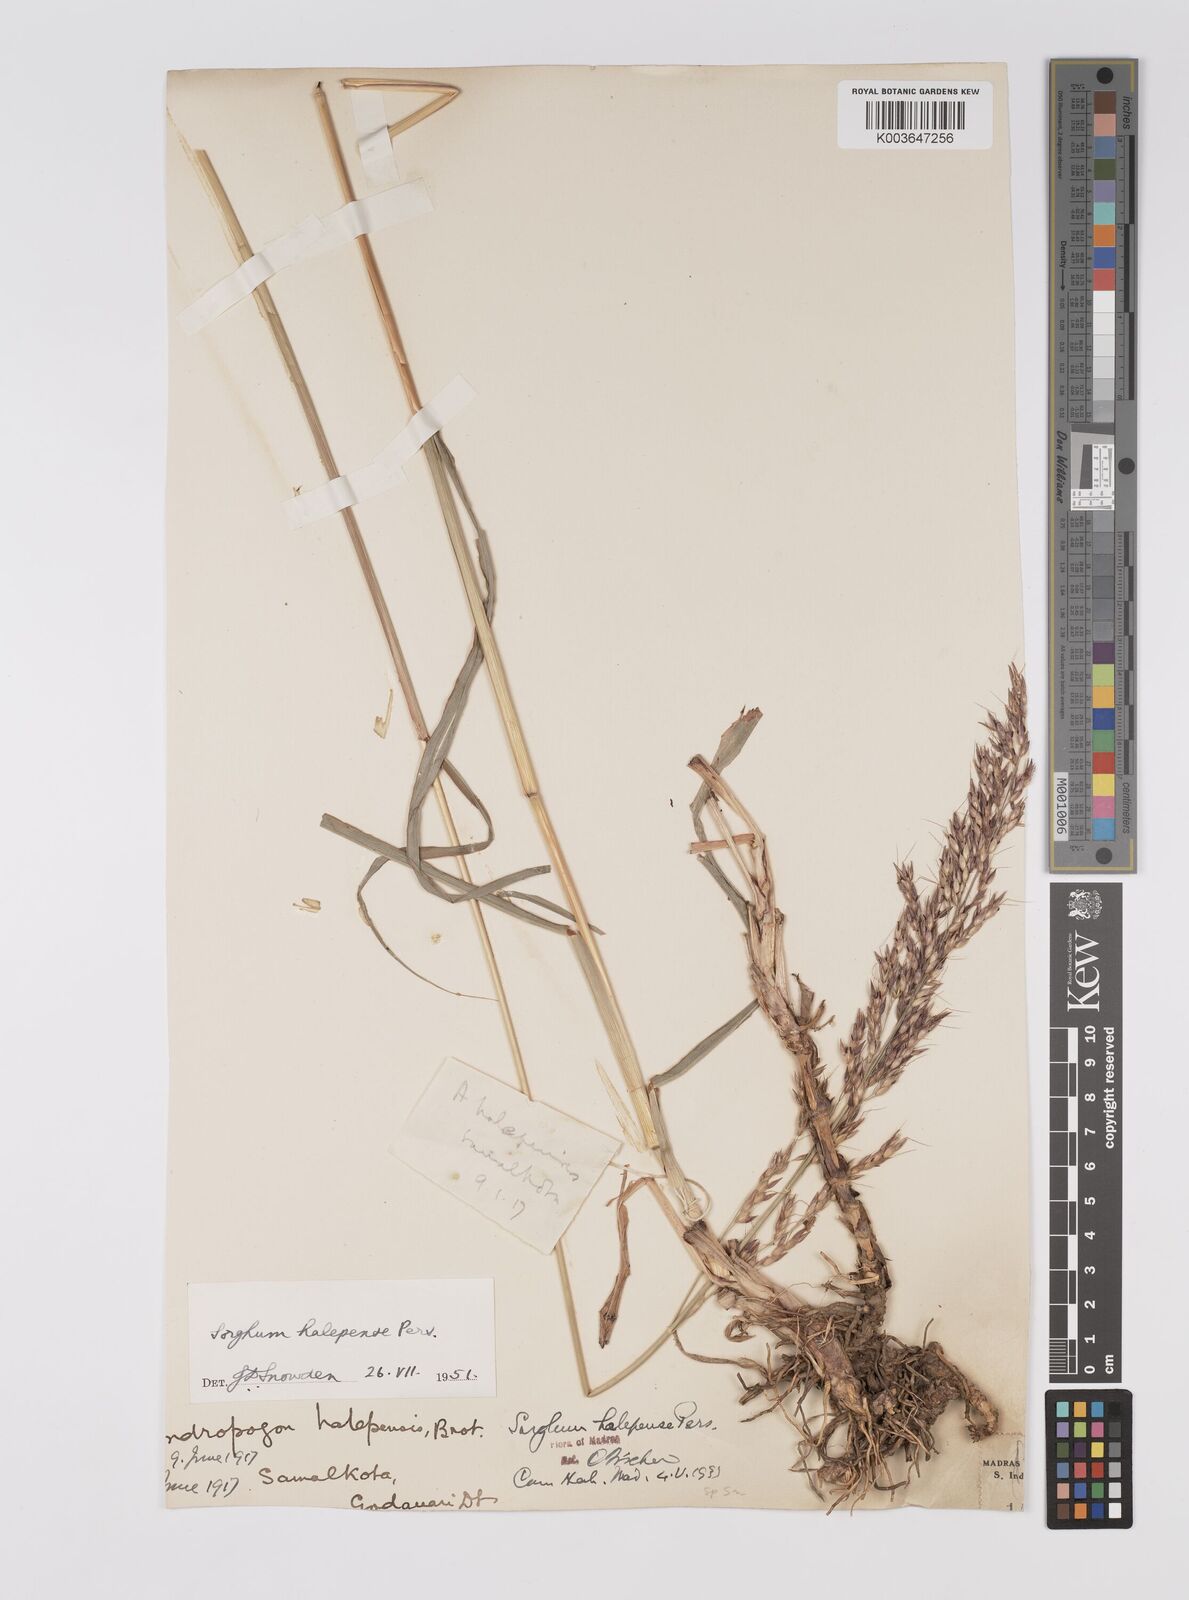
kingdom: Plantae
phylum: Tracheophyta
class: Liliopsida
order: Poales
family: Poaceae
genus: Sorghum
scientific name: Sorghum halepense
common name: Johnson-grass
